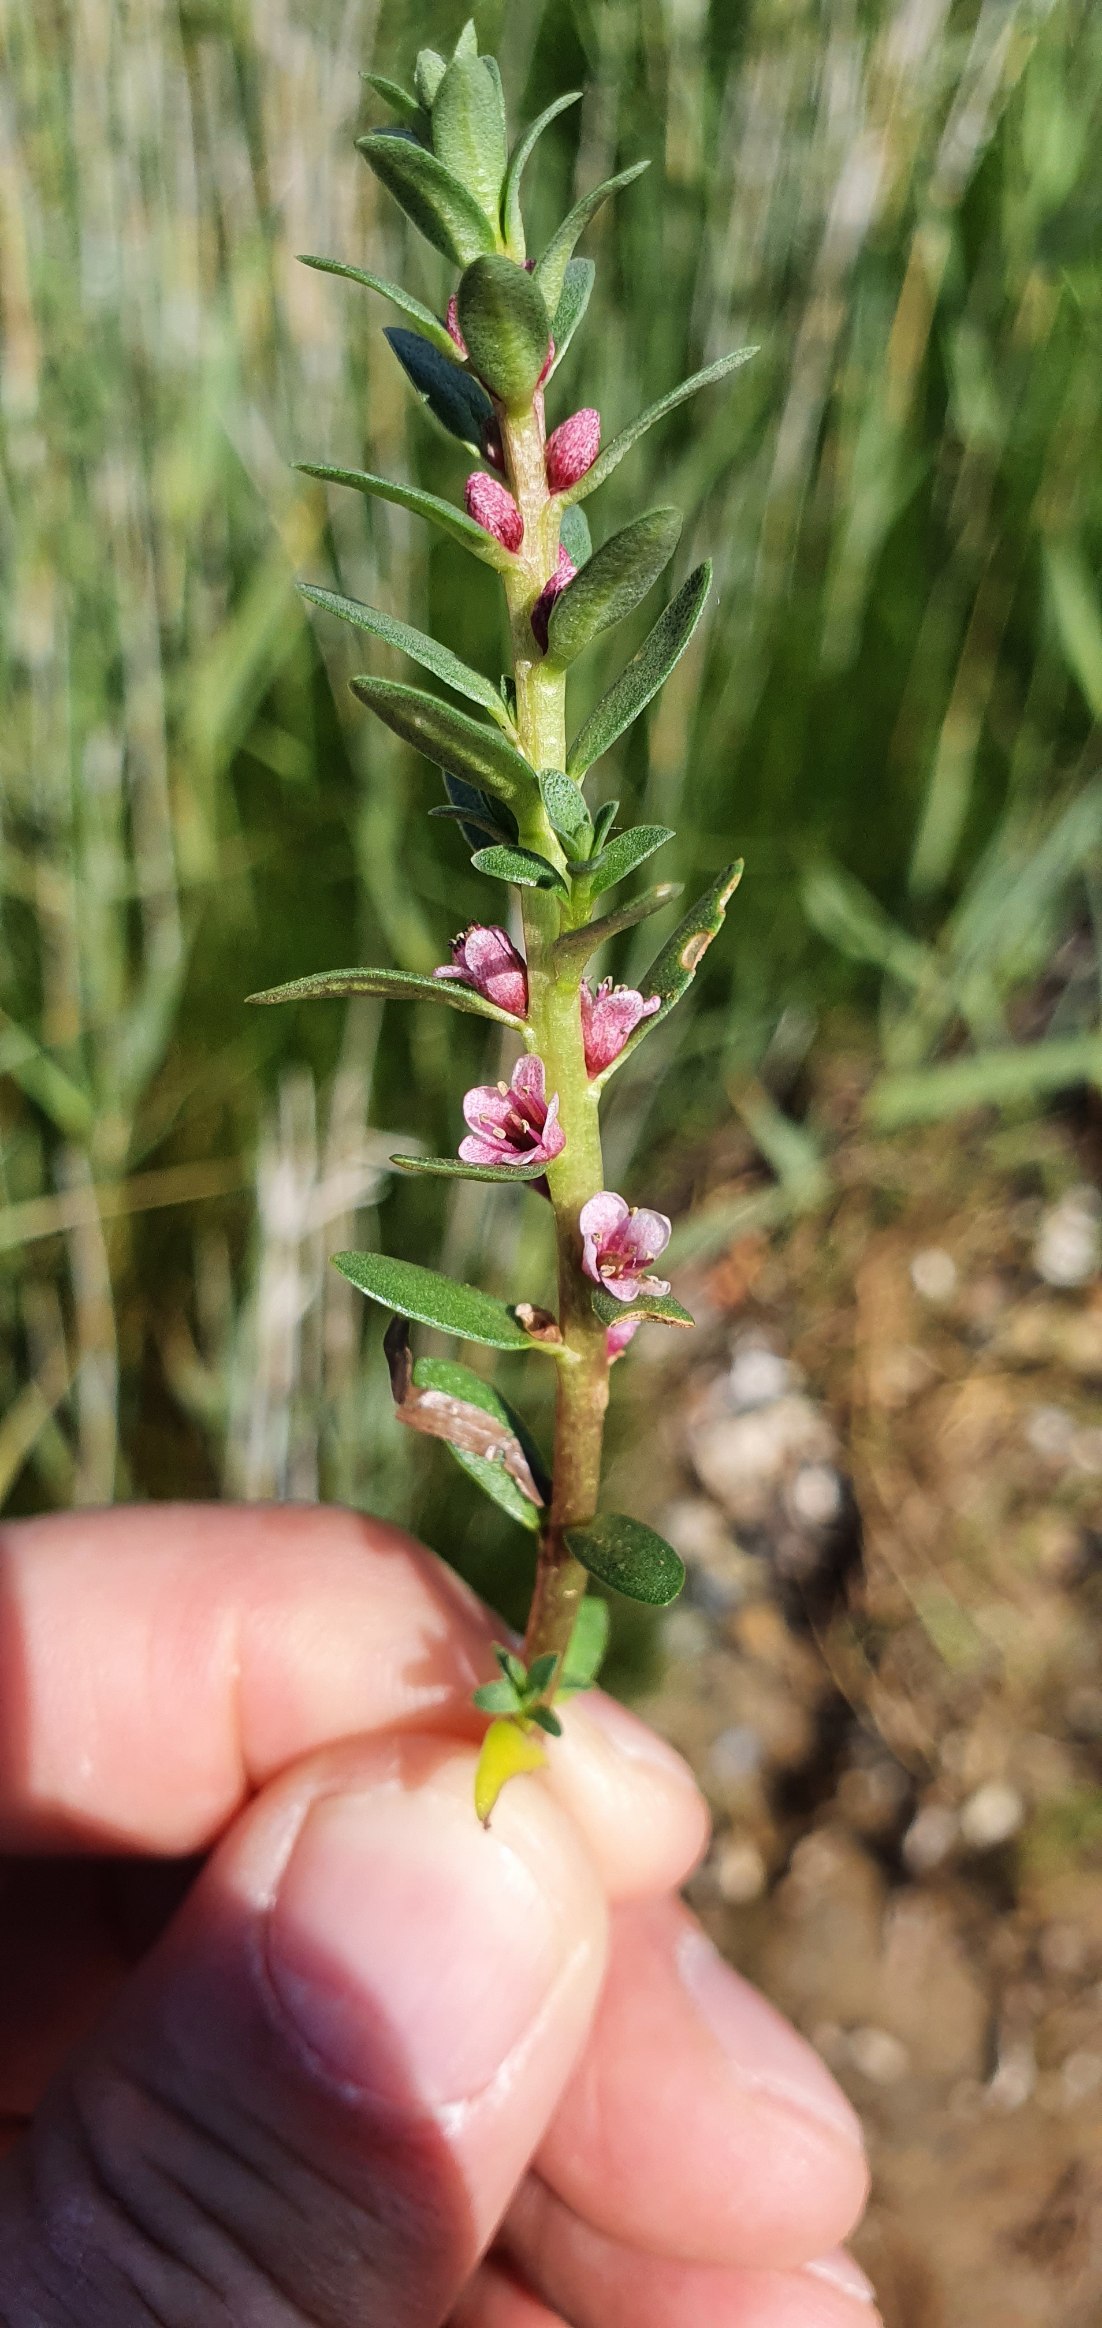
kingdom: Plantae
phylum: Tracheophyta
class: Magnoliopsida
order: Ericales
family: Primulaceae
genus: Lysimachia
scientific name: Lysimachia maritima
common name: Sandkryb
